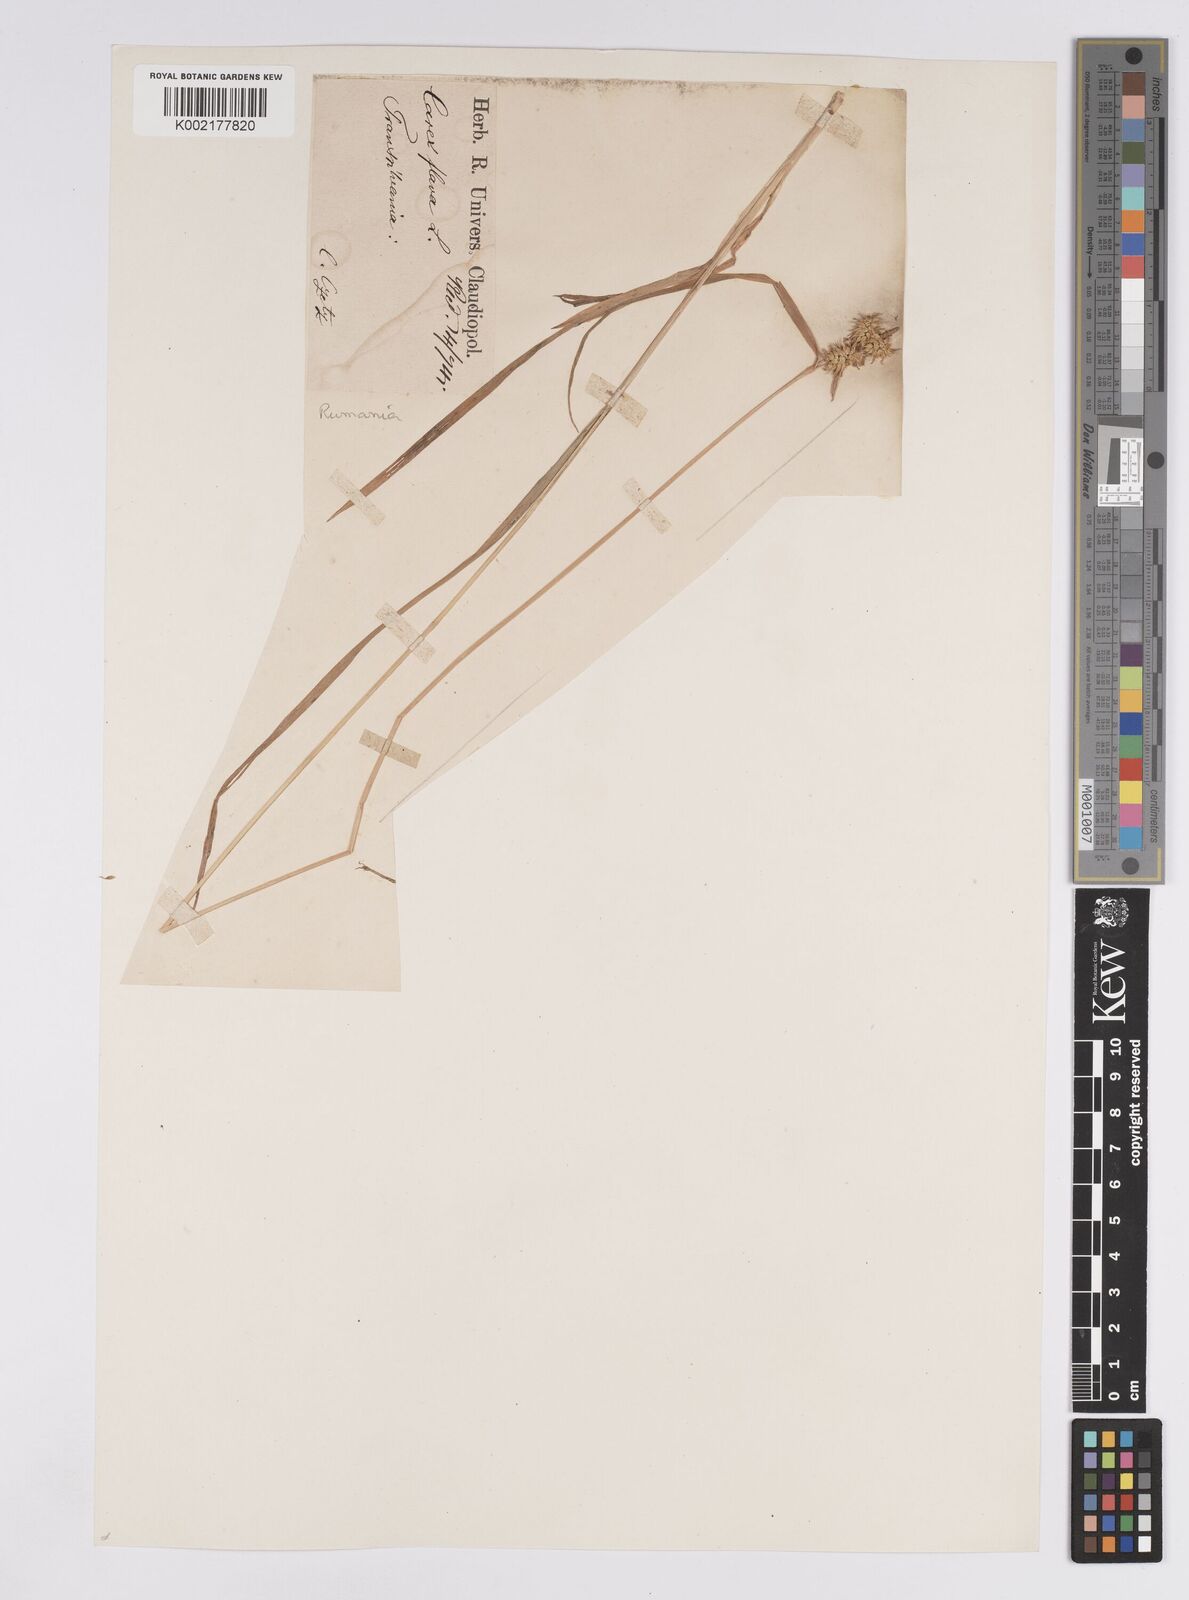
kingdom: Plantae
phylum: Tracheophyta
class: Liliopsida
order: Poales
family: Cyperaceae
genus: Carex
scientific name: Carex flava
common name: Large yellow-sedge
